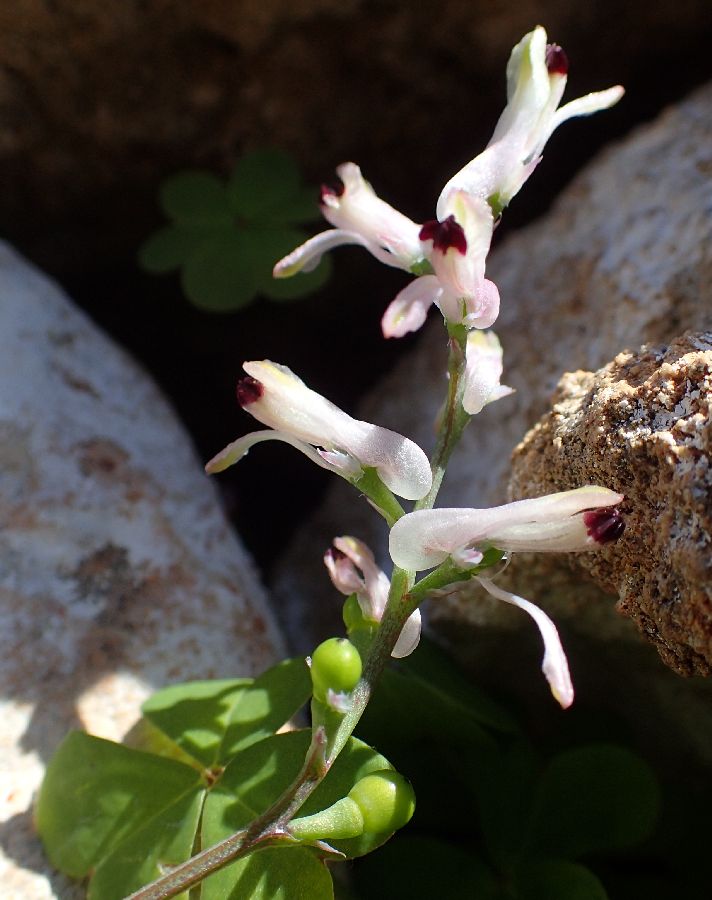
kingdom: Plantae
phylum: Tracheophyta
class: Magnoliopsida
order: Ranunculales
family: Papaveraceae
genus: Fumaria
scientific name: Fumaria bastardii
